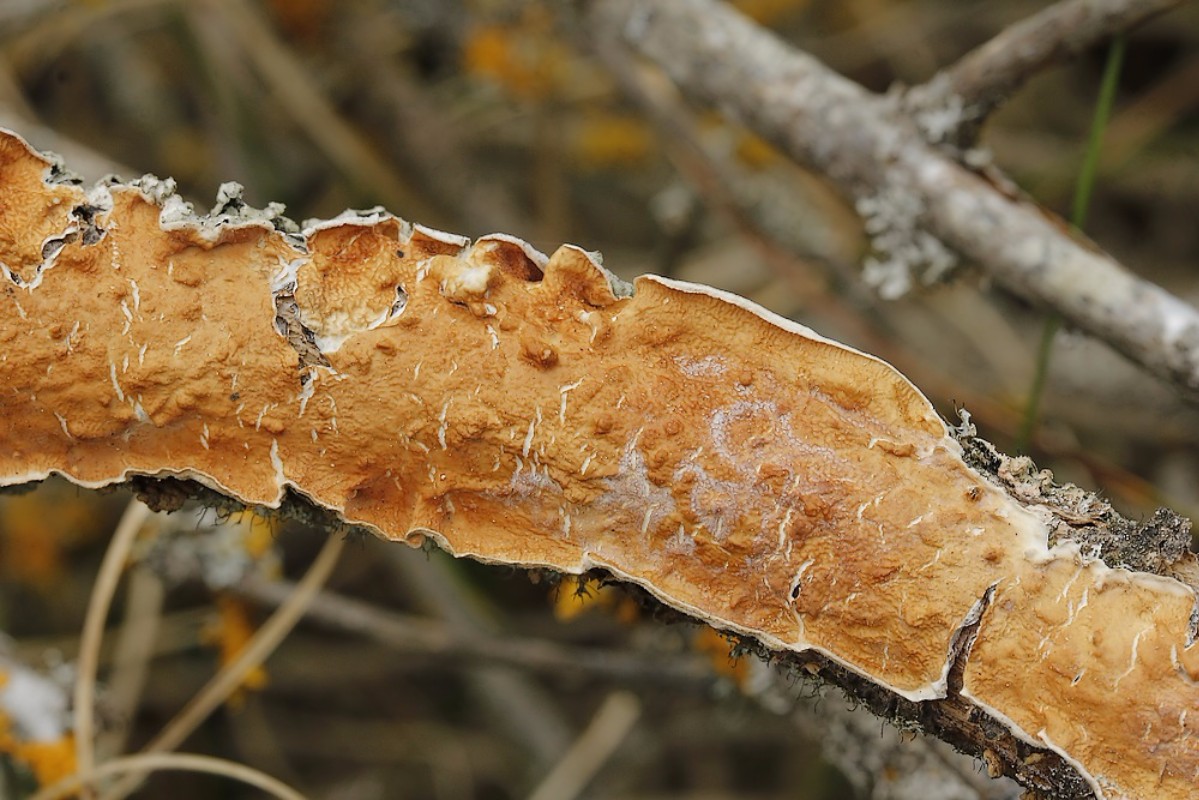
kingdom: Fungi
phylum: Basidiomycota
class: Agaricomycetes
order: Polyporales
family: Irpicaceae
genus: Byssomerulius
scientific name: Byssomerulius corium
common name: læder-åresvamp
